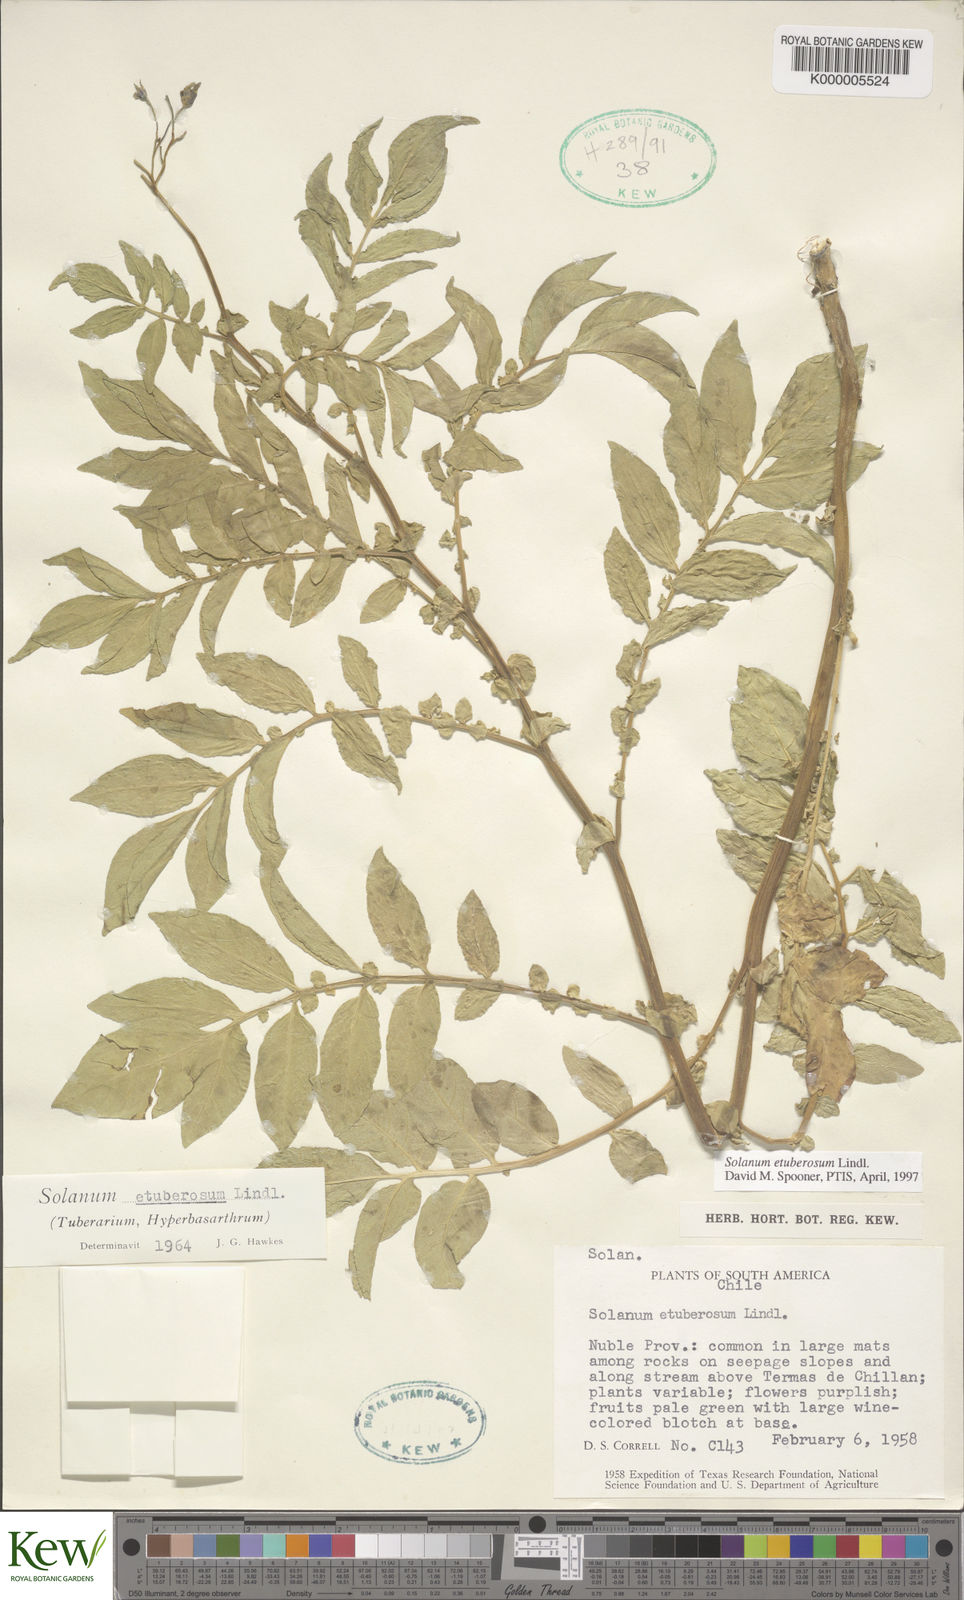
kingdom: Plantae
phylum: Tracheophyta
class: Magnoliopsida
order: Solanales
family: Solanaceae
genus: Solanum
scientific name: Solanum etuberosum
